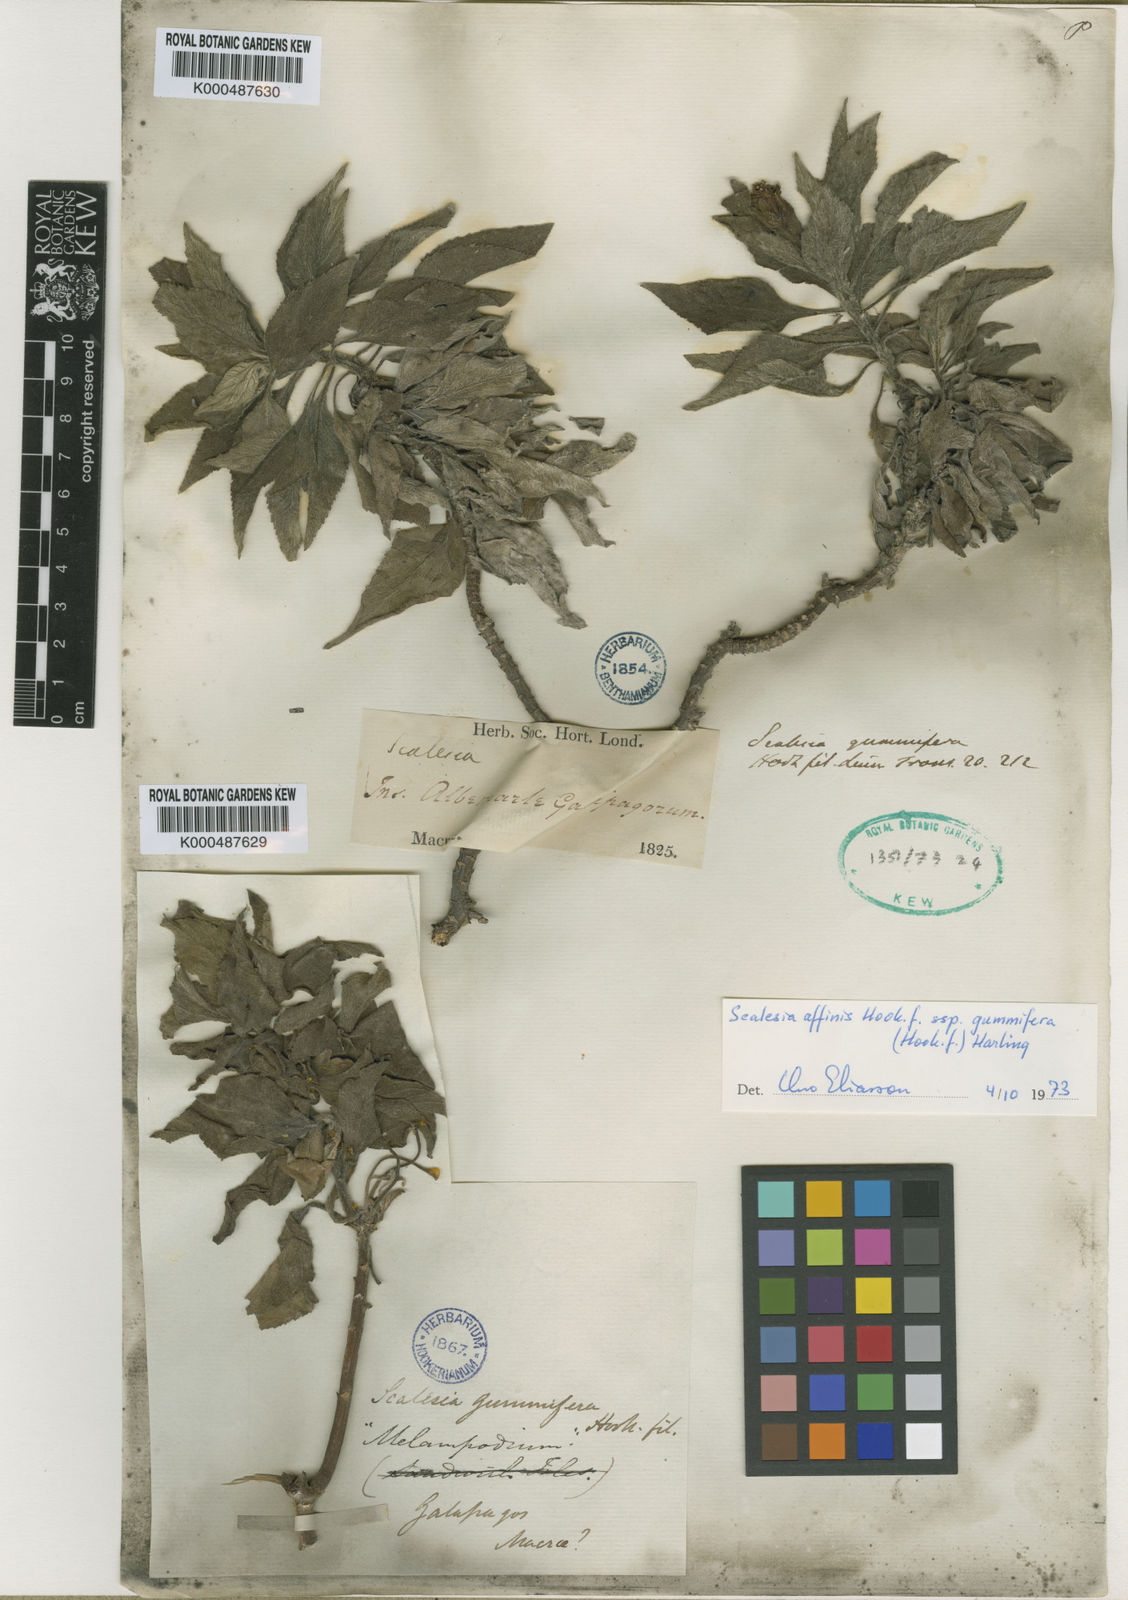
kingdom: Plantae
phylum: Tracheophyta
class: Magnoliopsida
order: Asterales
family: Asteraceae
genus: Scalesia
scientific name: Scalesia affinis
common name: Radiate-headed scalesia
